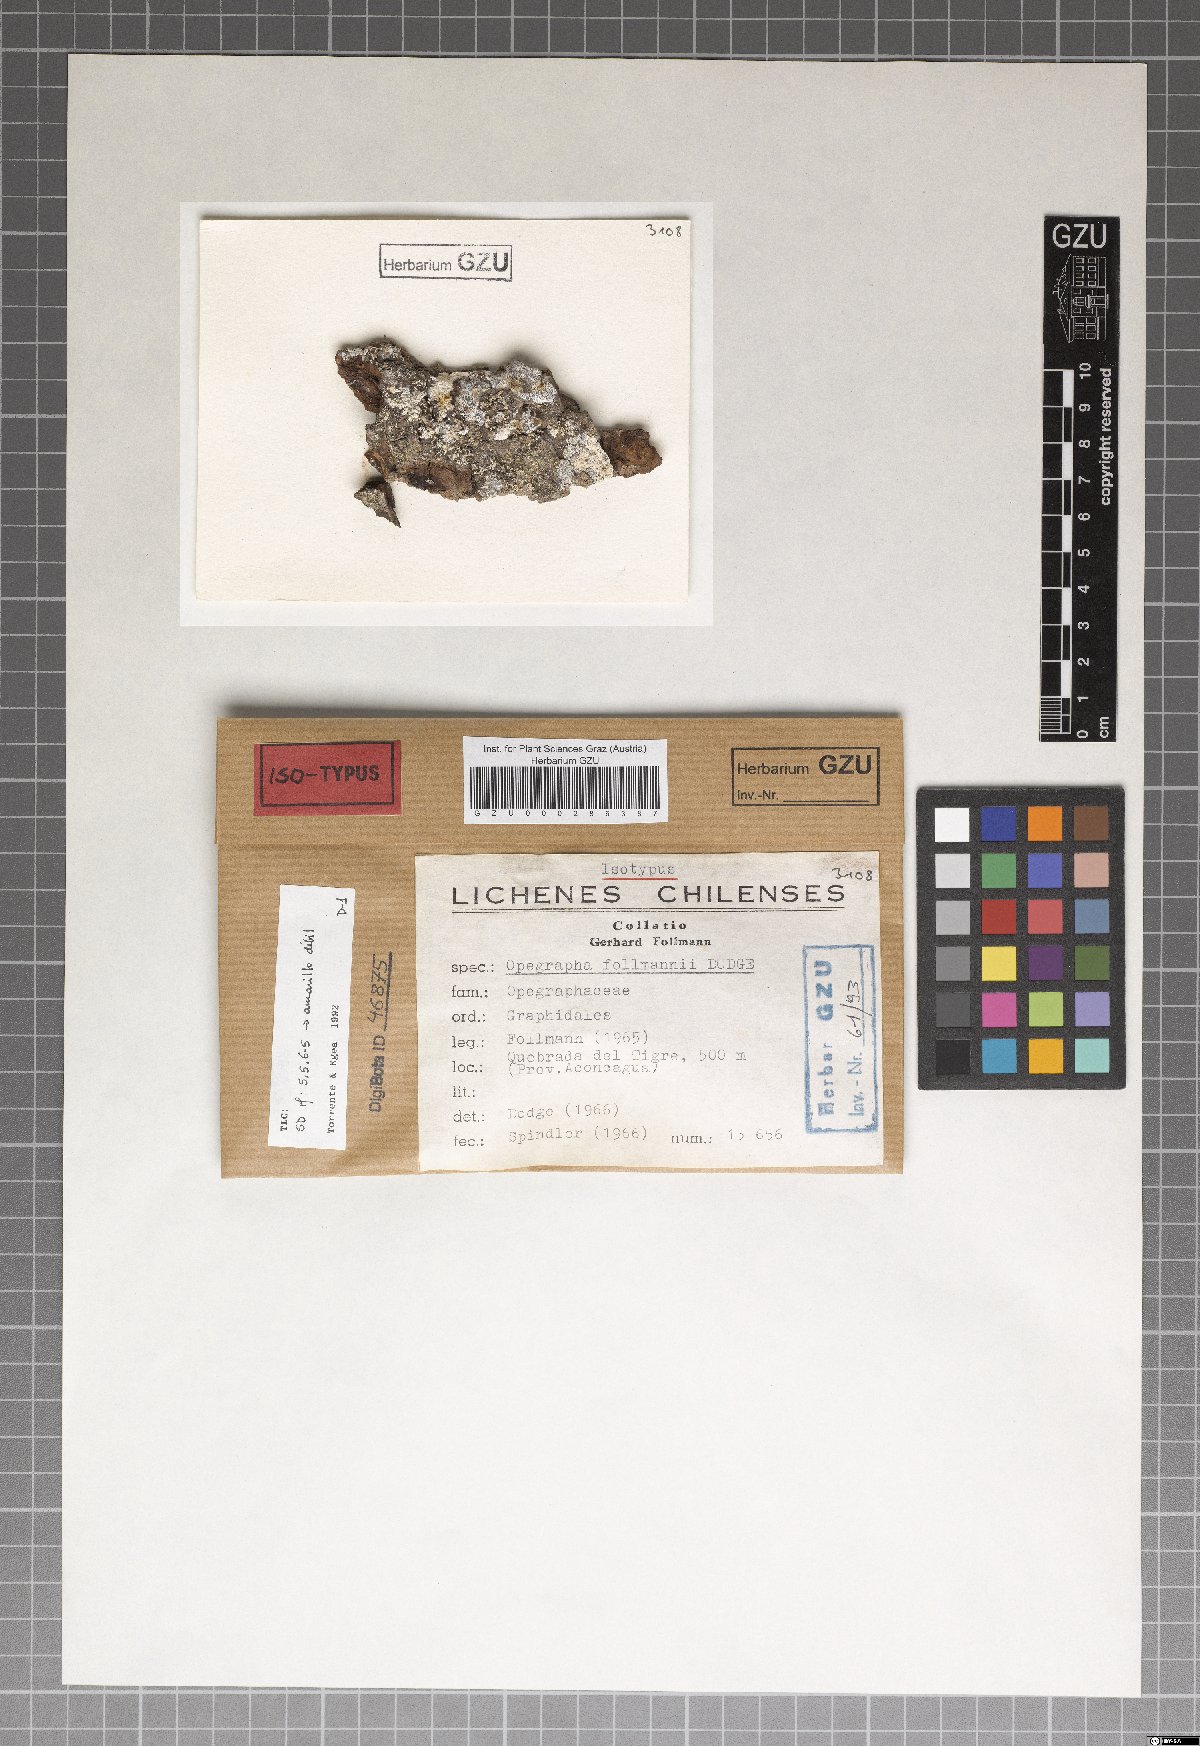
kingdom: Fungi
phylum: Ascomycota
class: Arthoniomycetes
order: Arthoniales
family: Opegraphaceae
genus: Opegrapha
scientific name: Opegrapha
